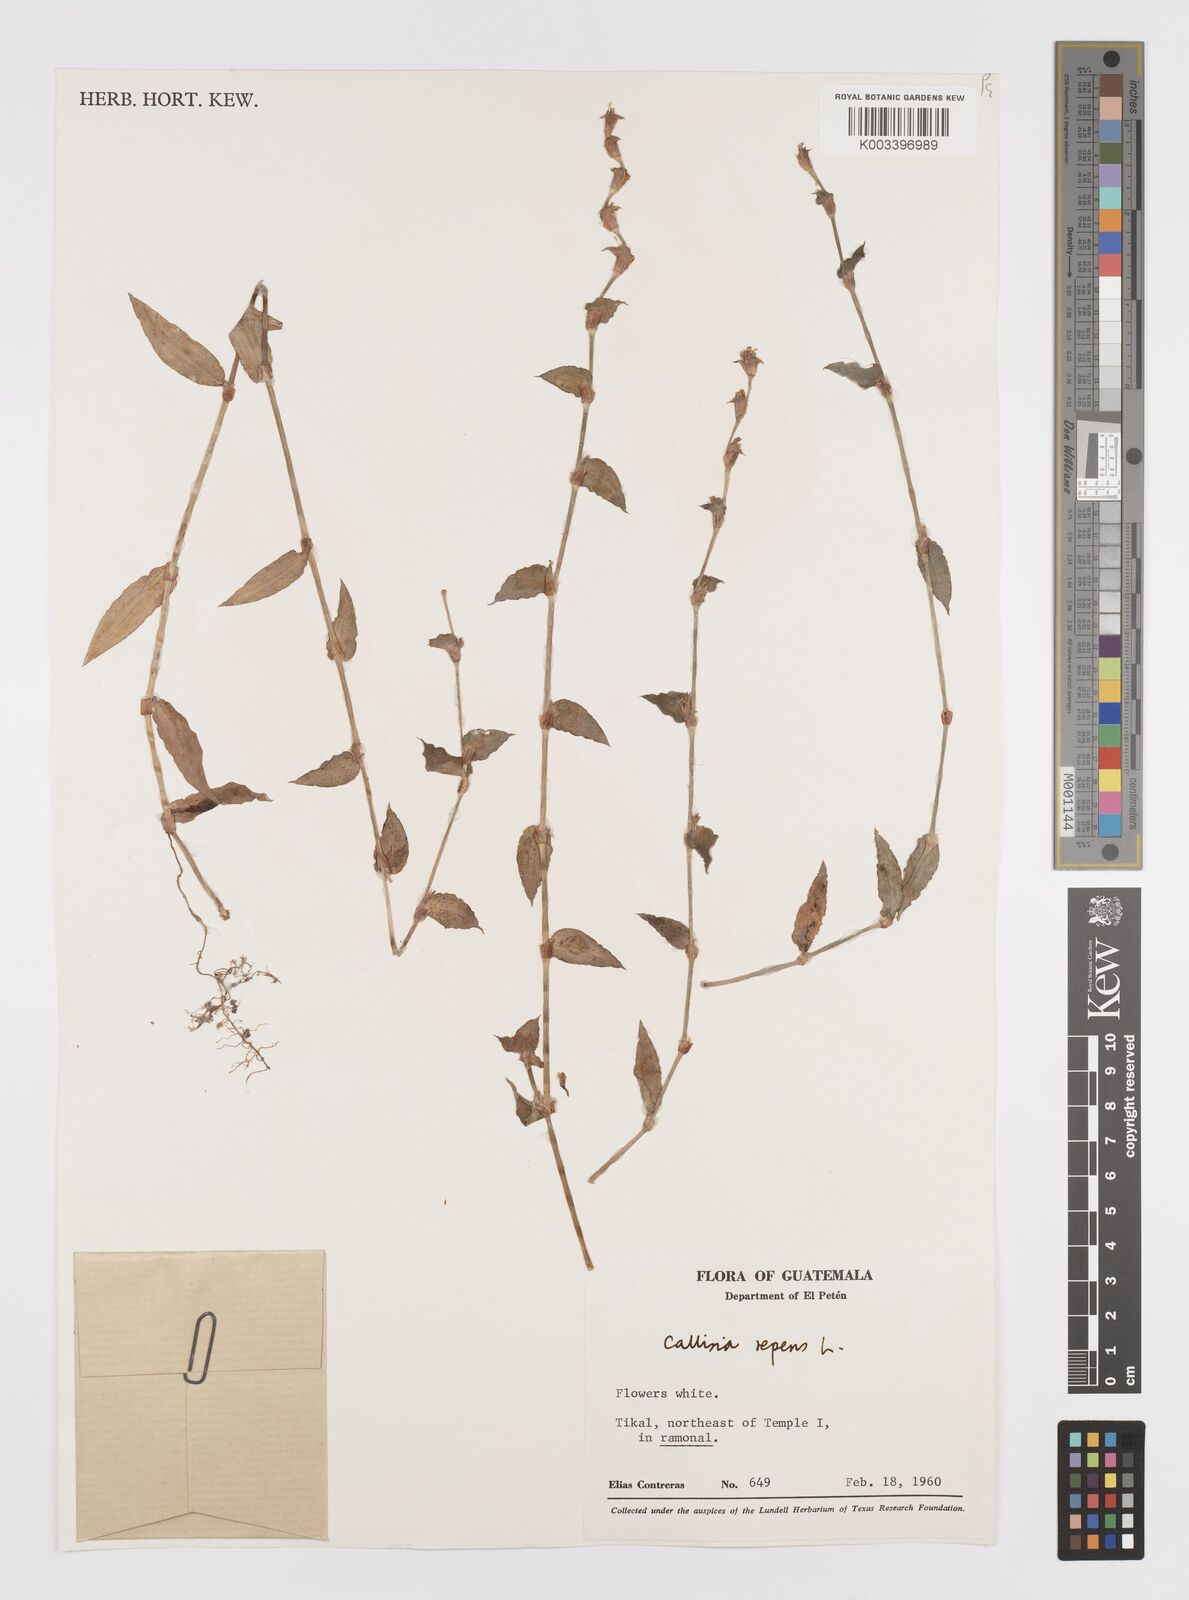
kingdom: Plantae
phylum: Tracheophyta
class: Liliopsida
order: Commelinales
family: Commelinaceae
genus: Callisia
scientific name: Callisia repens
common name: Creeping inchplant
